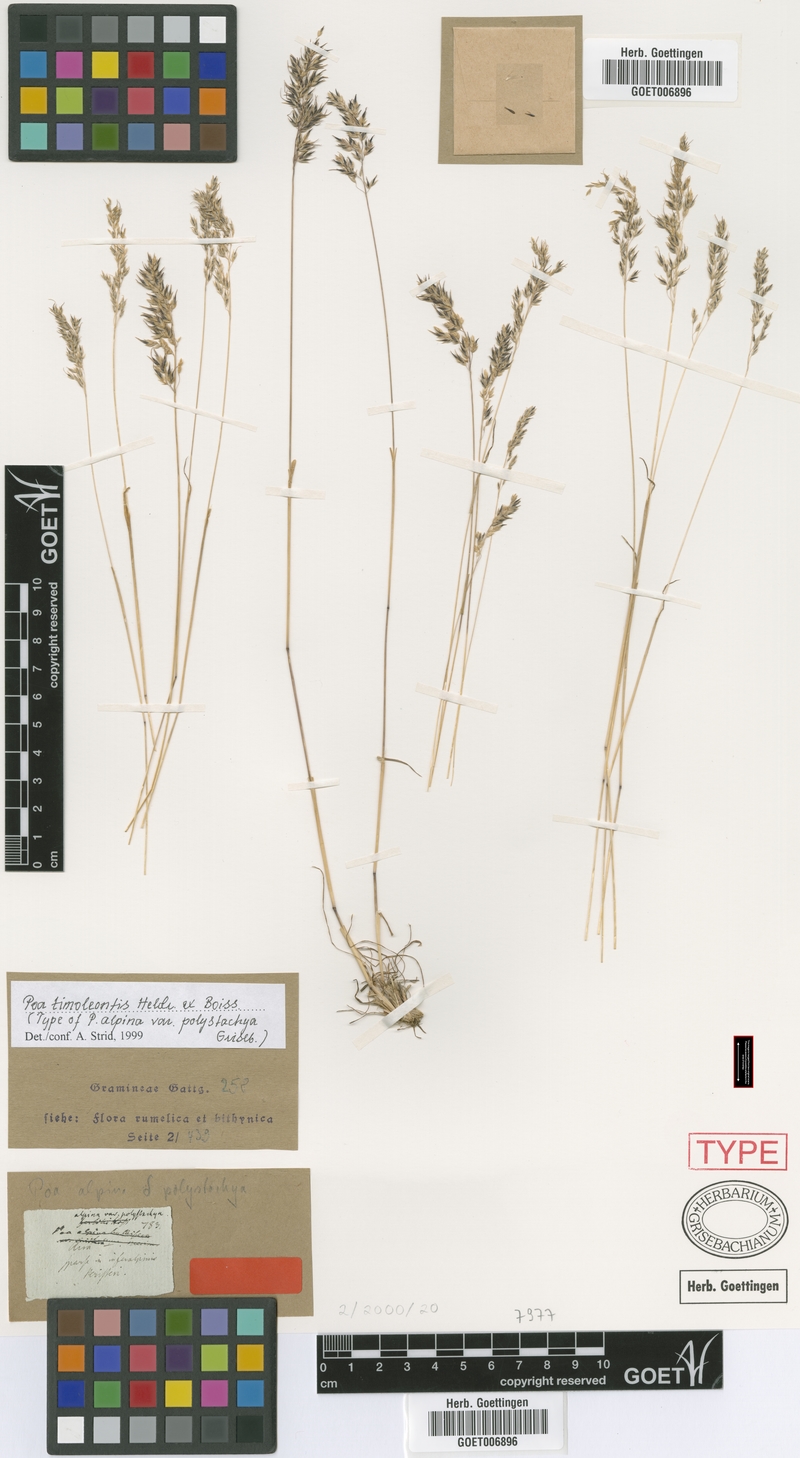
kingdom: Plantae
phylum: Tracheophyta
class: Liliopsida
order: Poales
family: Poaceae
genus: Poa
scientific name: Poa timoleontis
